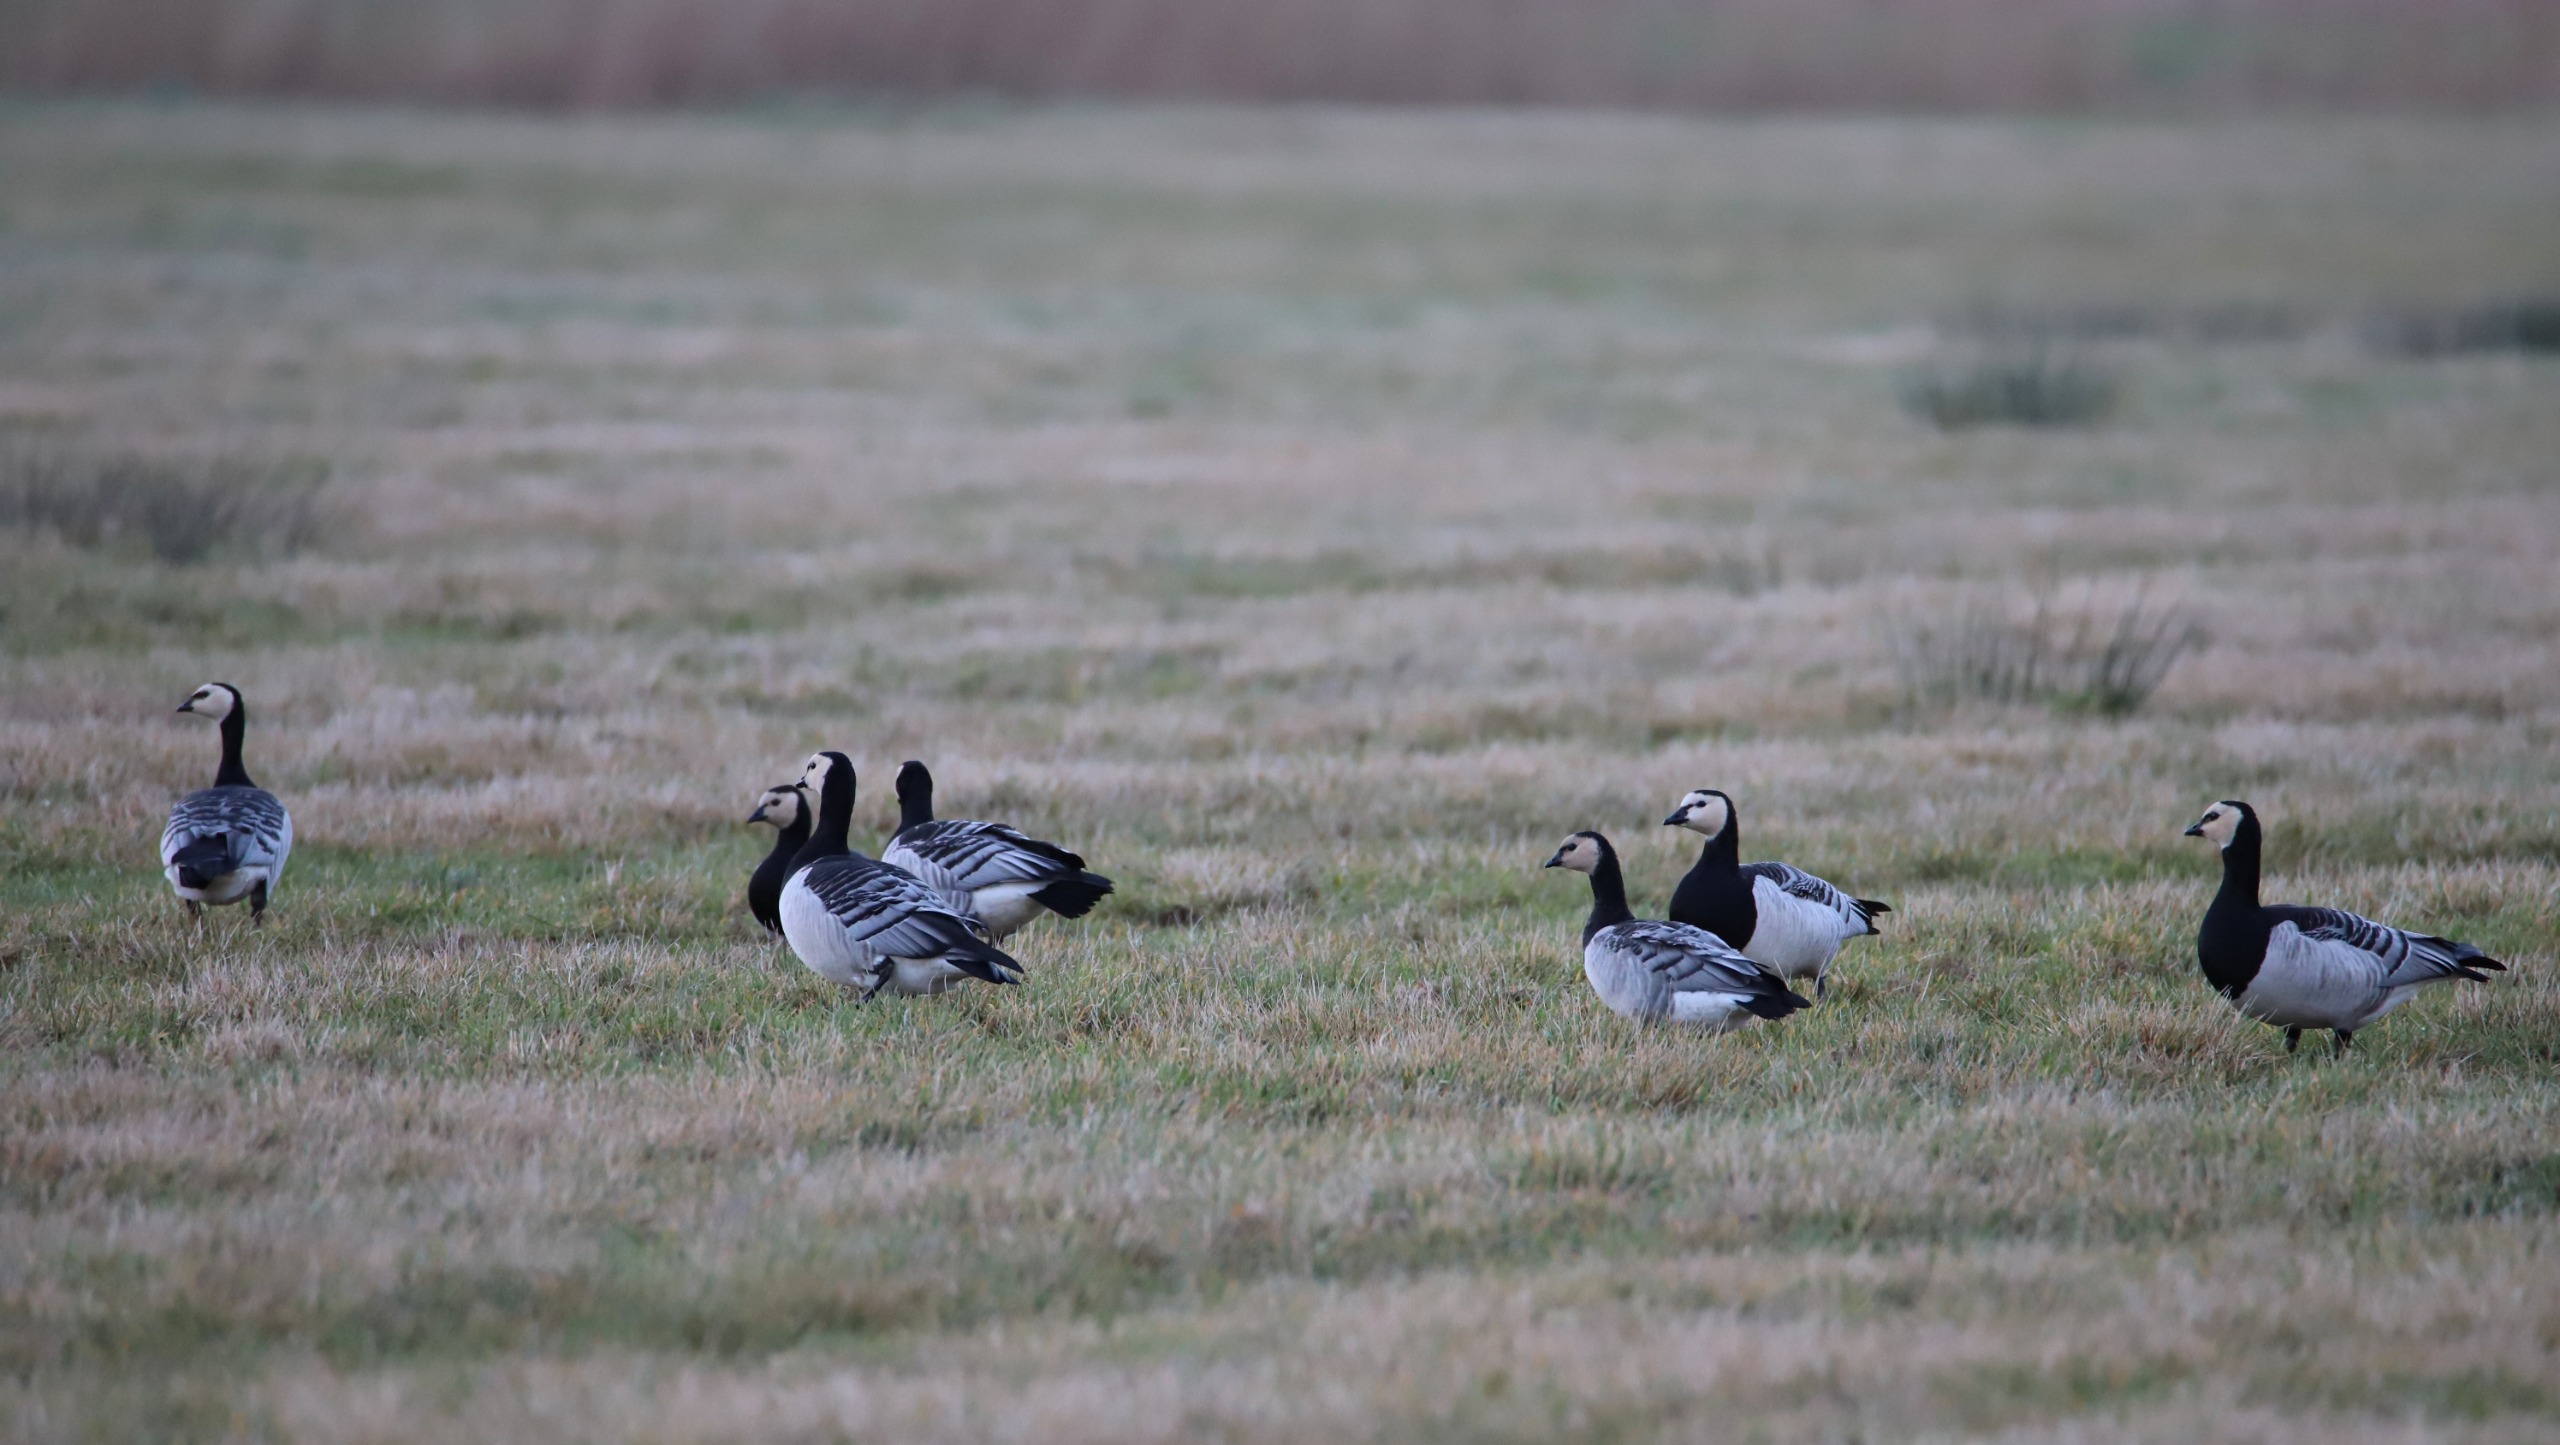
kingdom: Animalia
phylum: Chordata
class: Aves
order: Anseriformes
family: Anatidae
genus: Branta
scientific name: Branta leucopsis
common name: Bramgås
